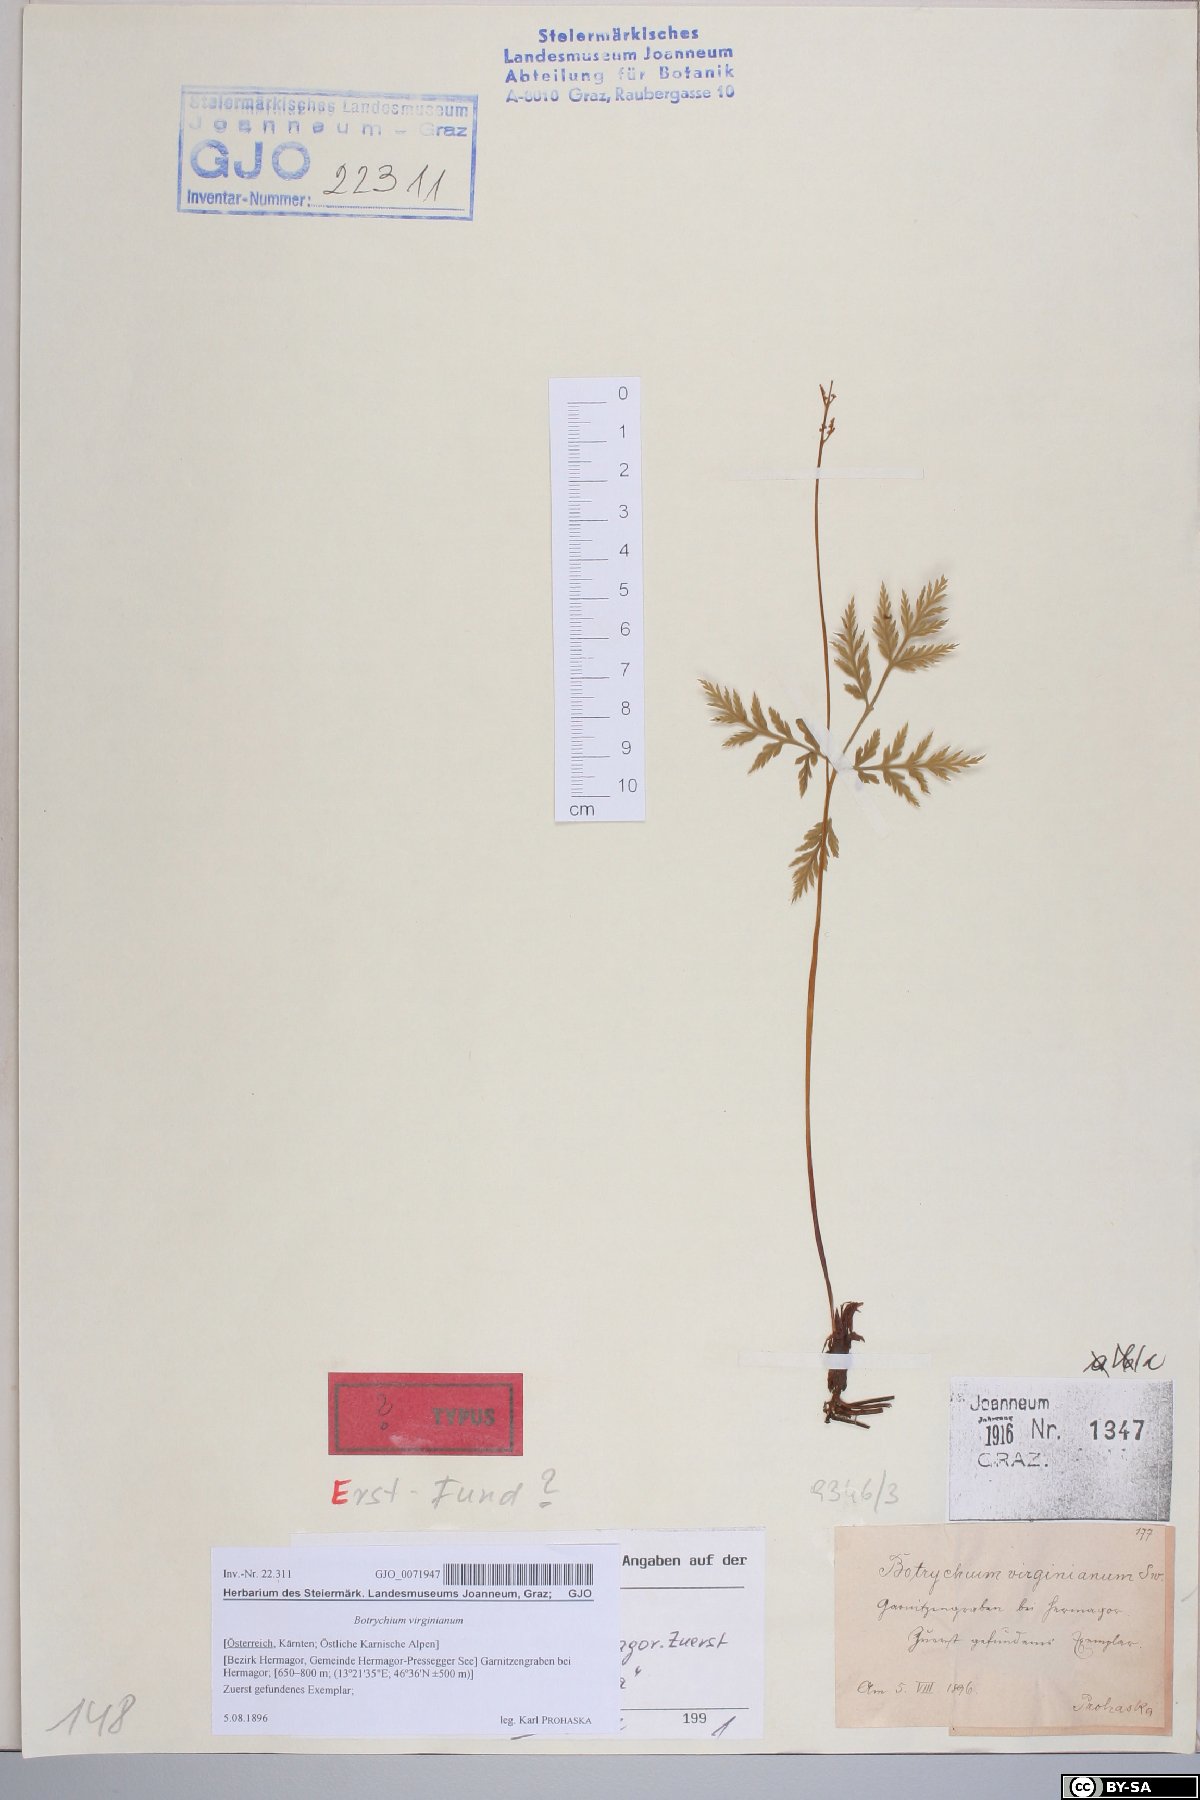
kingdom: Plantae
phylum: Tracheophyta
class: Polypodiopsida
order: Ophioglossales
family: Ophioglossaceae
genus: Botrypus
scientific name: Botrypus virginianus
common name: Common grapefern
